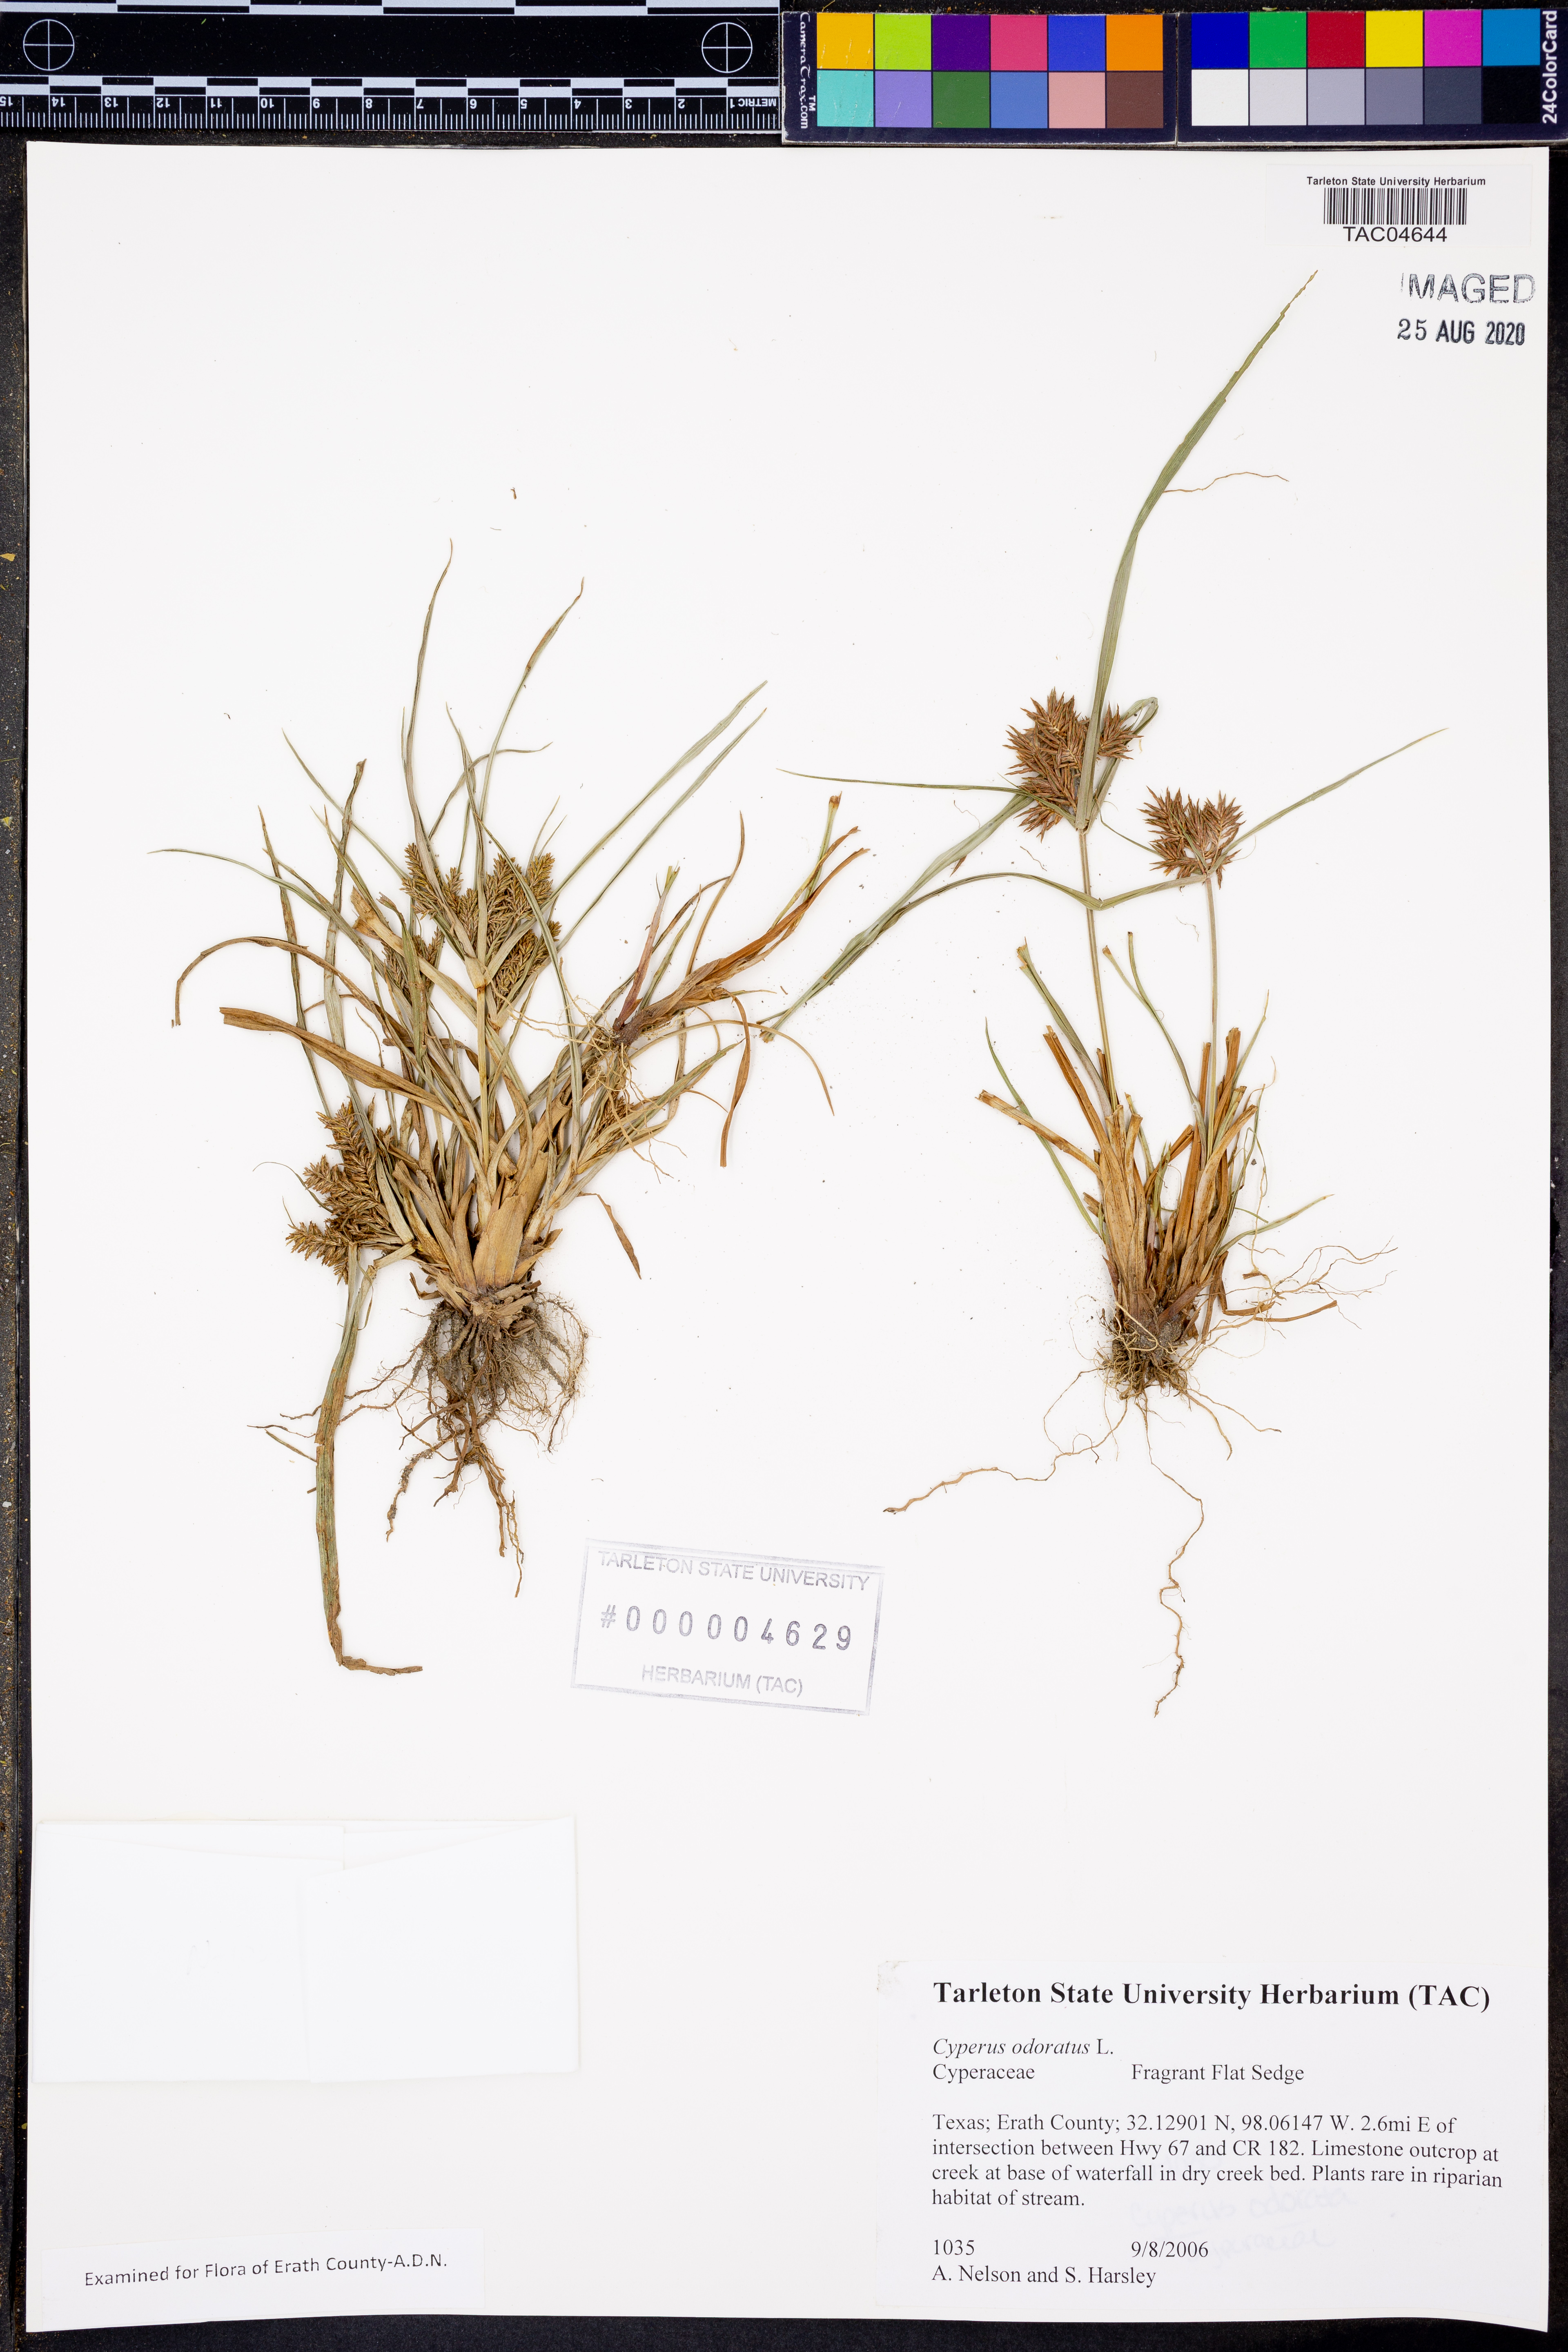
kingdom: Plantae
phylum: Tracheophyta
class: Liliopsida
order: Poales
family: Cyperaceae
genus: Cyperus
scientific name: Cyperus odoratus
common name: Fragrant flatsedge
